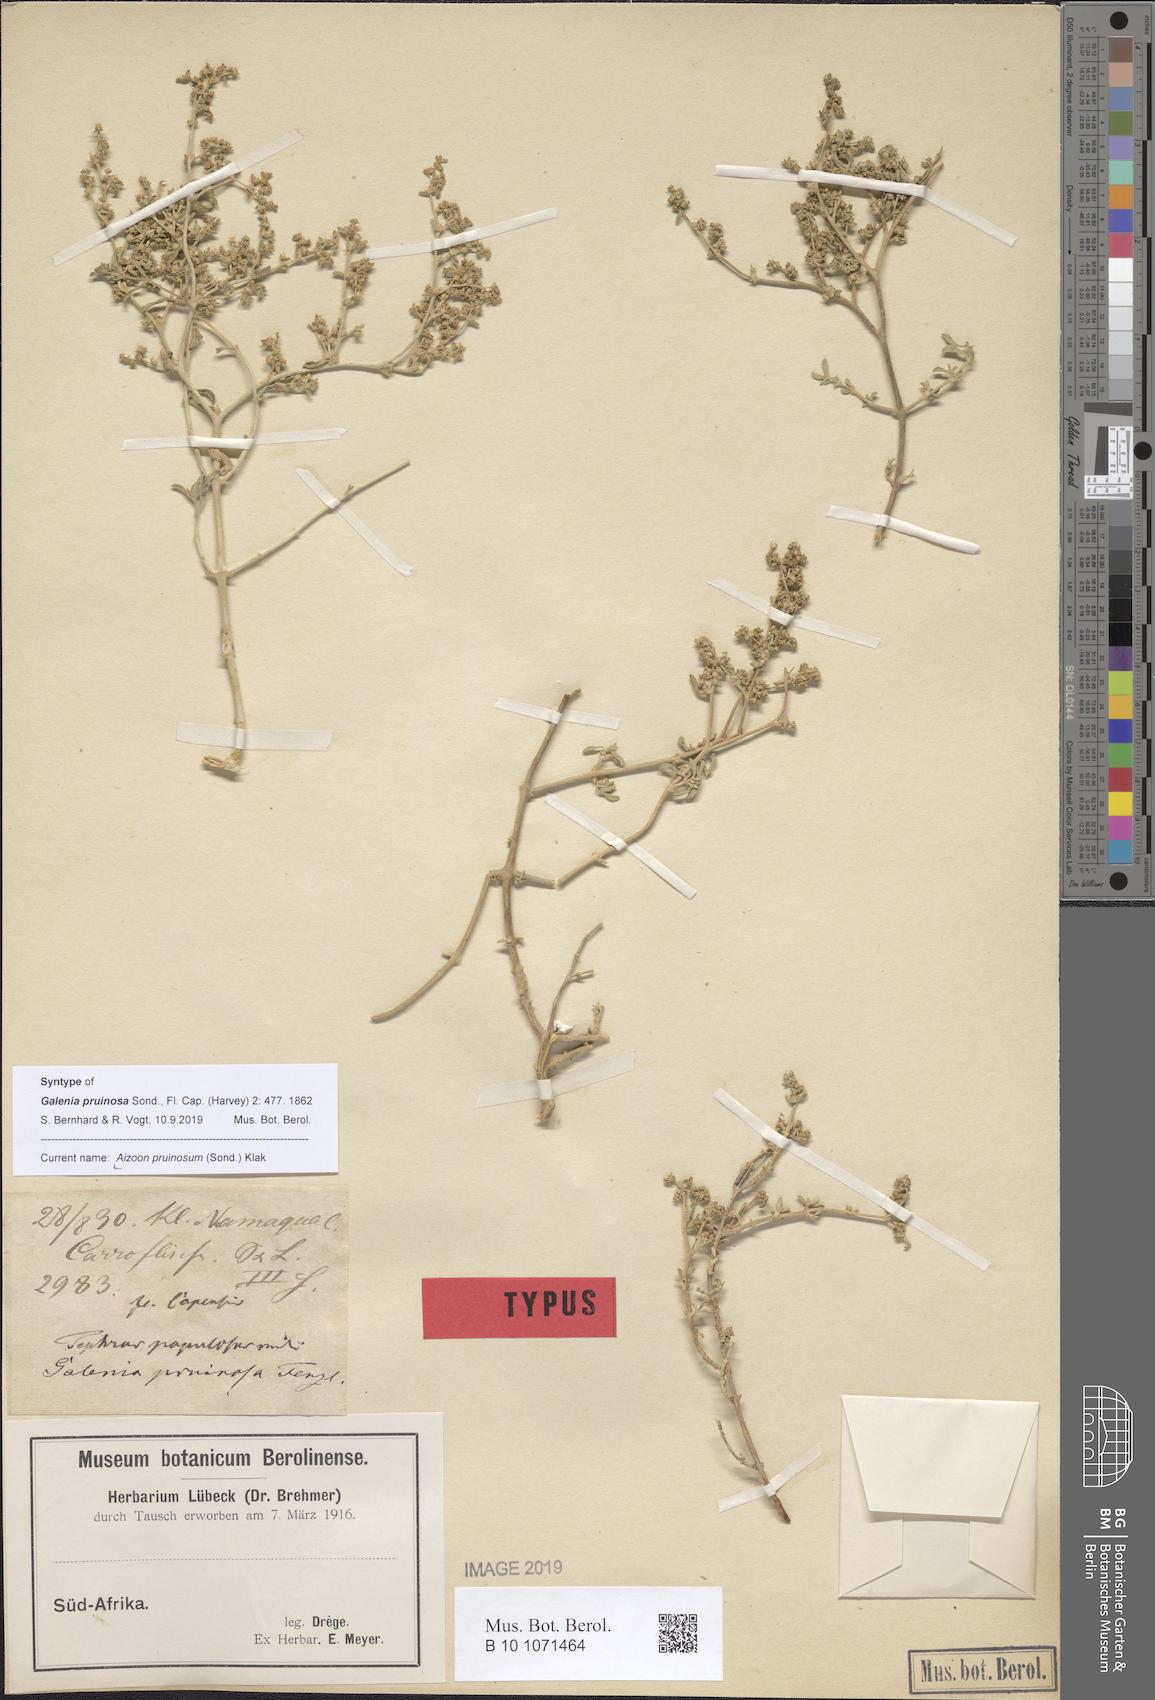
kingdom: Plantae
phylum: Tracheophyta
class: Magnoliopsida
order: Caryophyllales
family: Aizoaceae
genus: Aizoon
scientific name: Aizoon pruinosum
